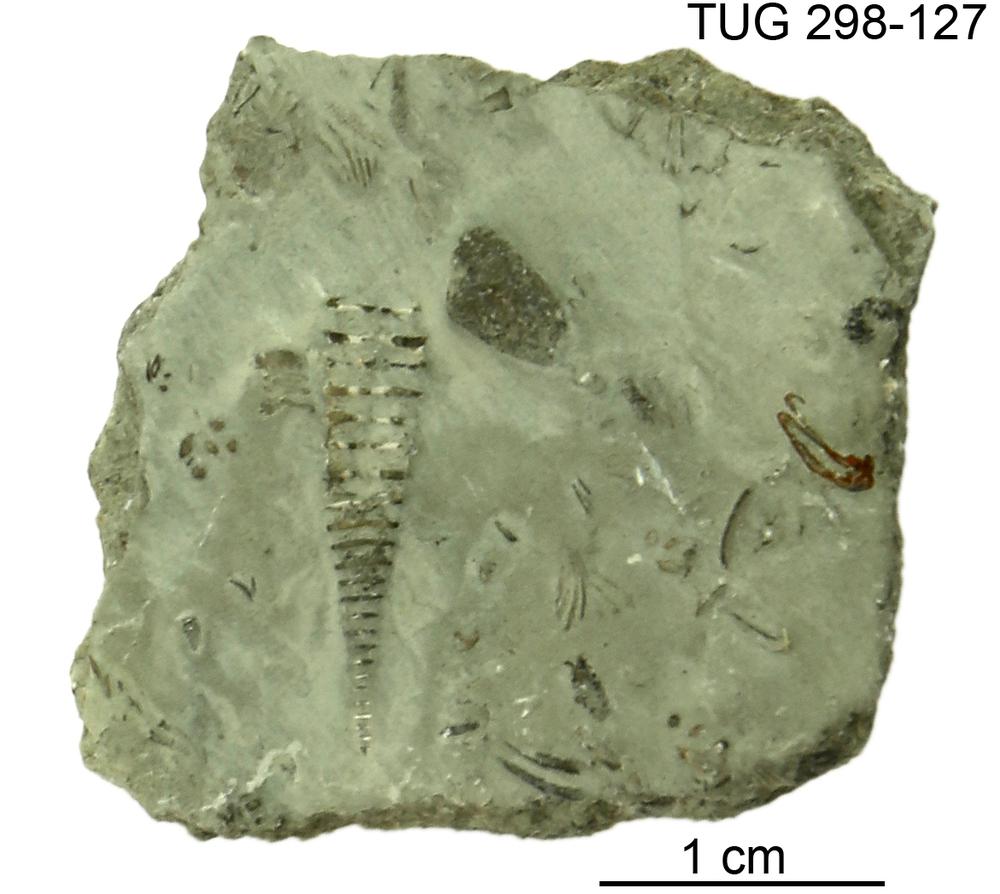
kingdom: Animalia
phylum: Mollusca
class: Cricoconarida
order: Tentaculitida
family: Tentaculitidae
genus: Tentaculites
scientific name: Tentaculites
